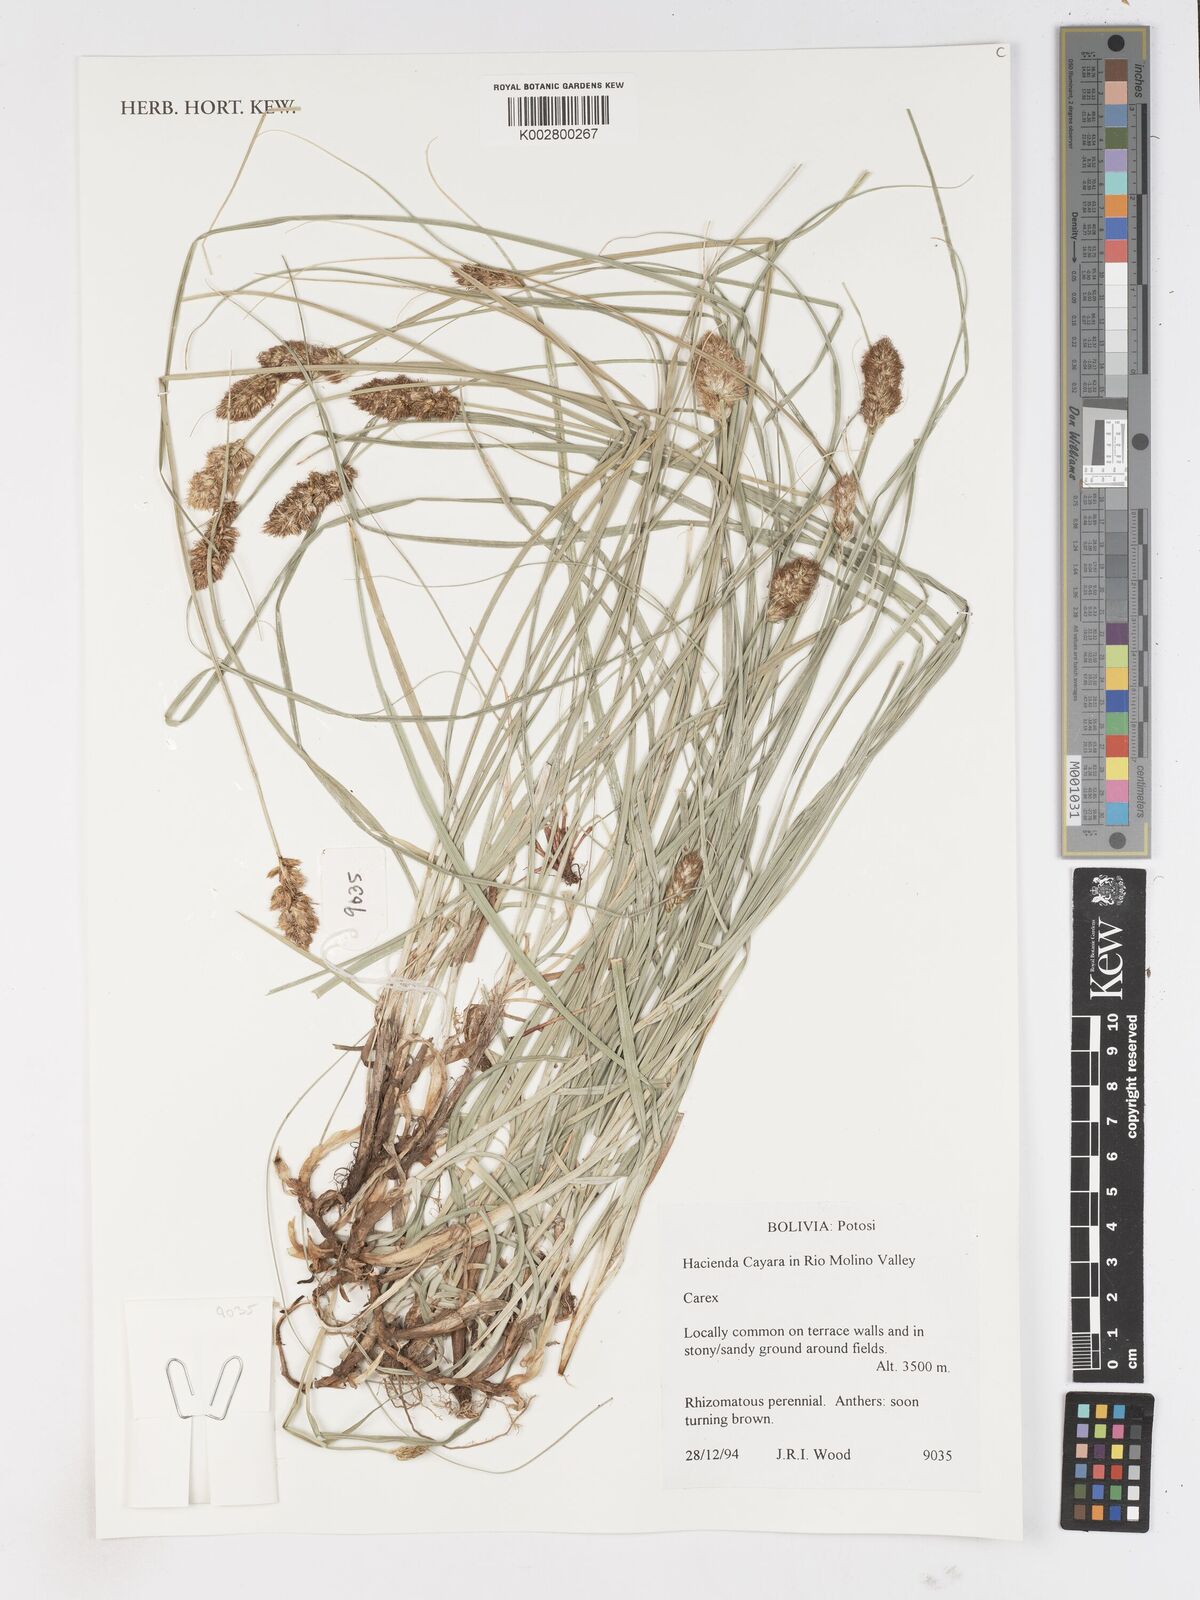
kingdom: Plantae
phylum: Tracheophyta
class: Liliopsida
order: Poales
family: Cyperaceae
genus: Carex
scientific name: Carex
